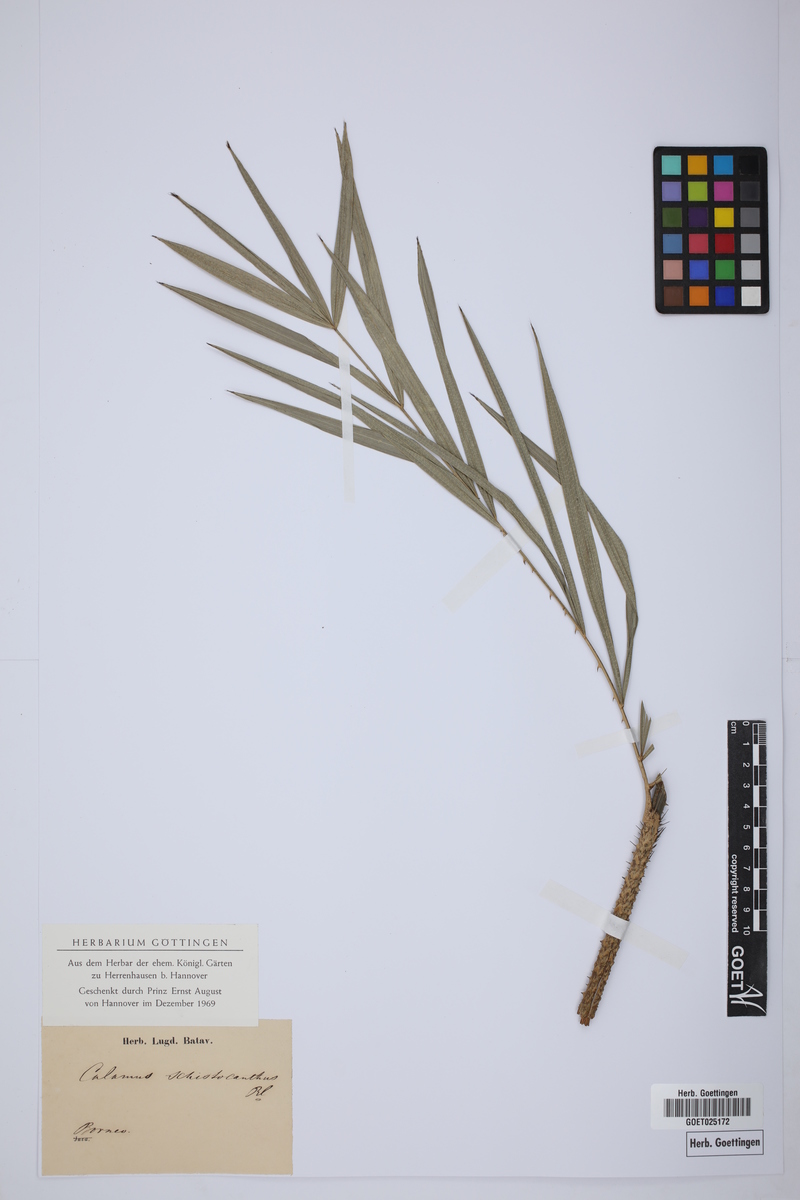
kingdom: Plantae
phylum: Tracheophyta
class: Liliopsida
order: Arecales
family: Arecaceae
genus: Calamus
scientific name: Calamus schistoacanthus
